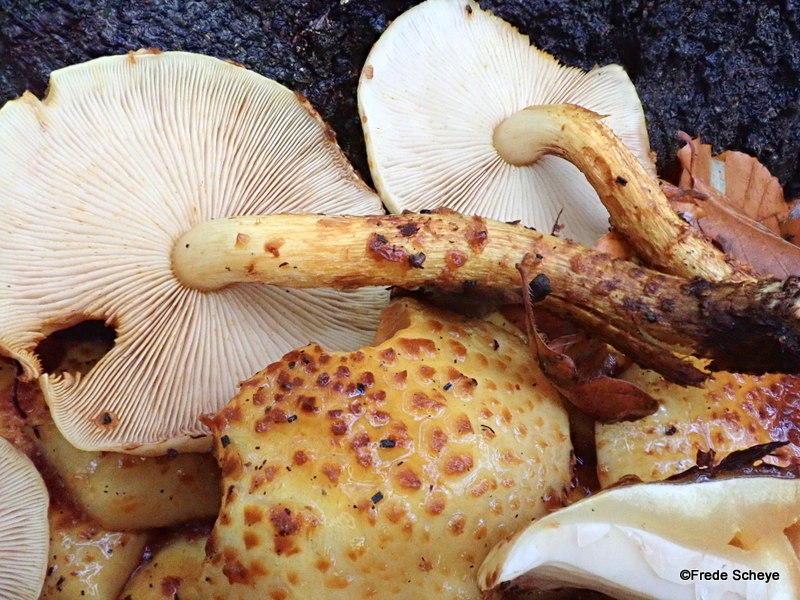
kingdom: Fungi
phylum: Basidiomycota
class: Agaricomycetes
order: Agaricales
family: Strophariaceae
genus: Pholiota
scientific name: Pholiota jahnii
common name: slimet skælhat
